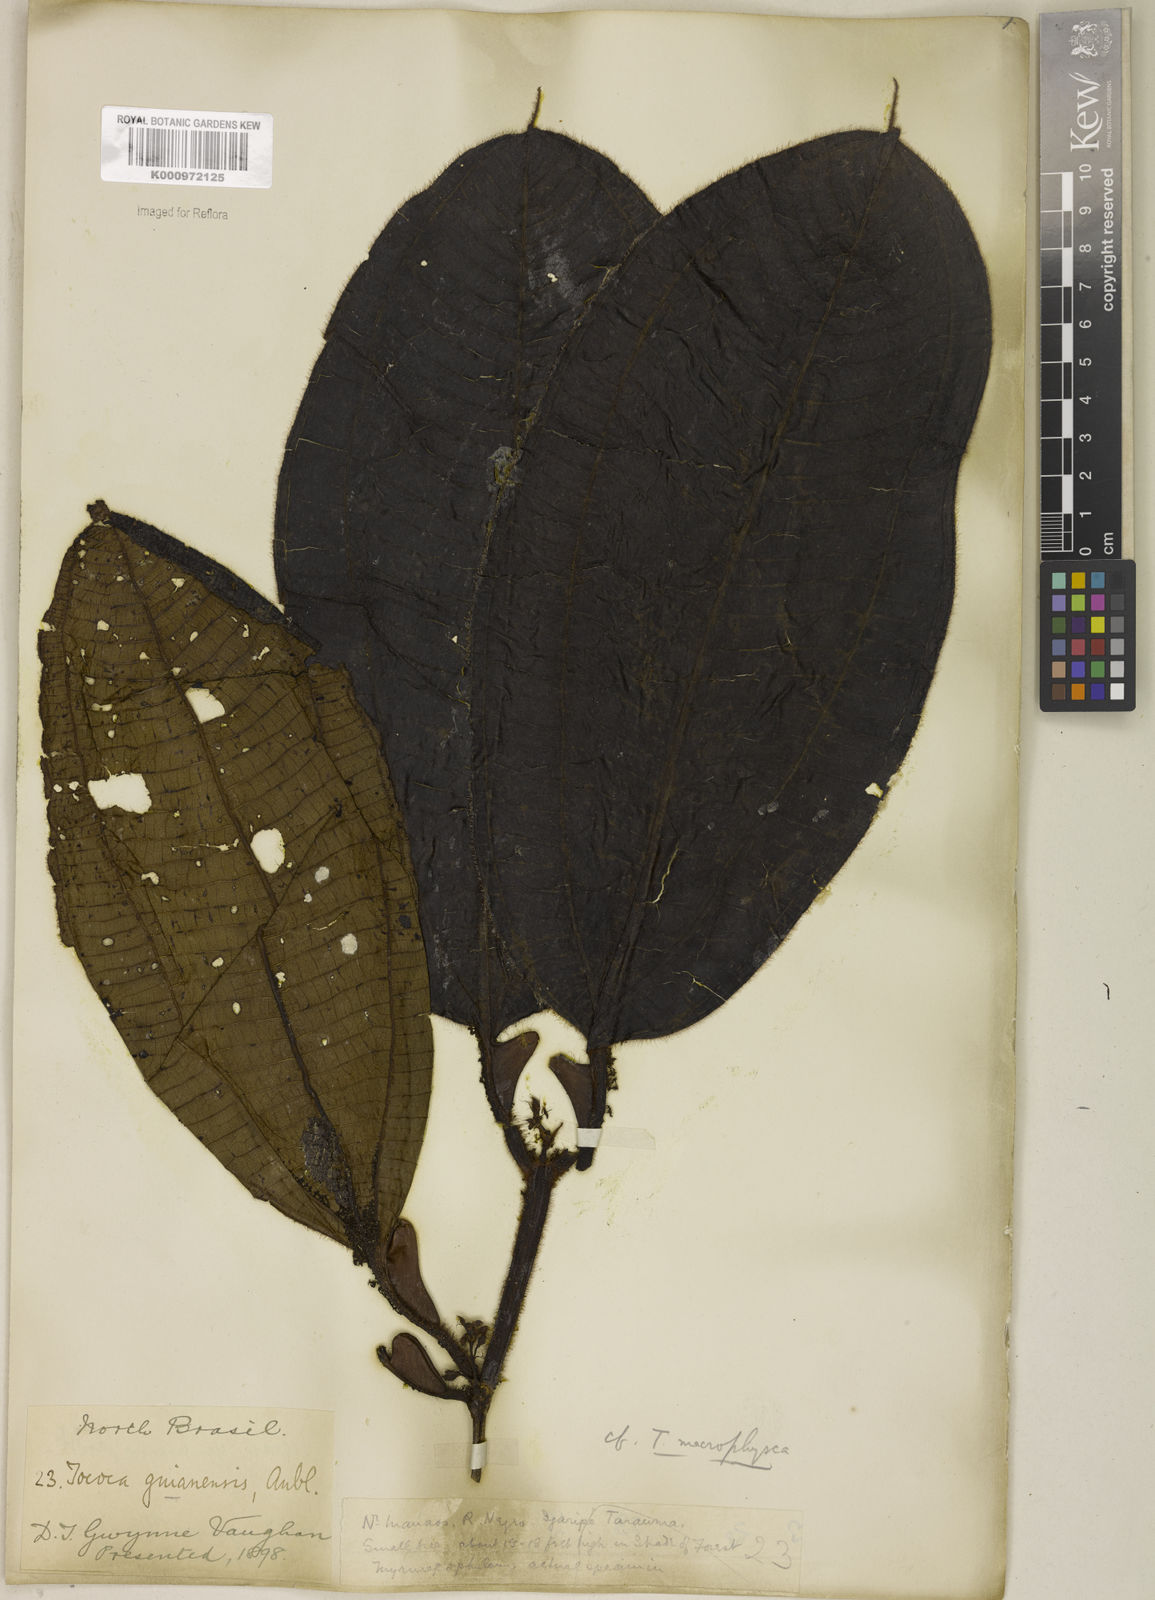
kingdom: Plantae
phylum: Tracheophyta
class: Magnoliopsida
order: Myrtales
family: Melastomataceae
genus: Miconia
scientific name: Miconia macrophysca
